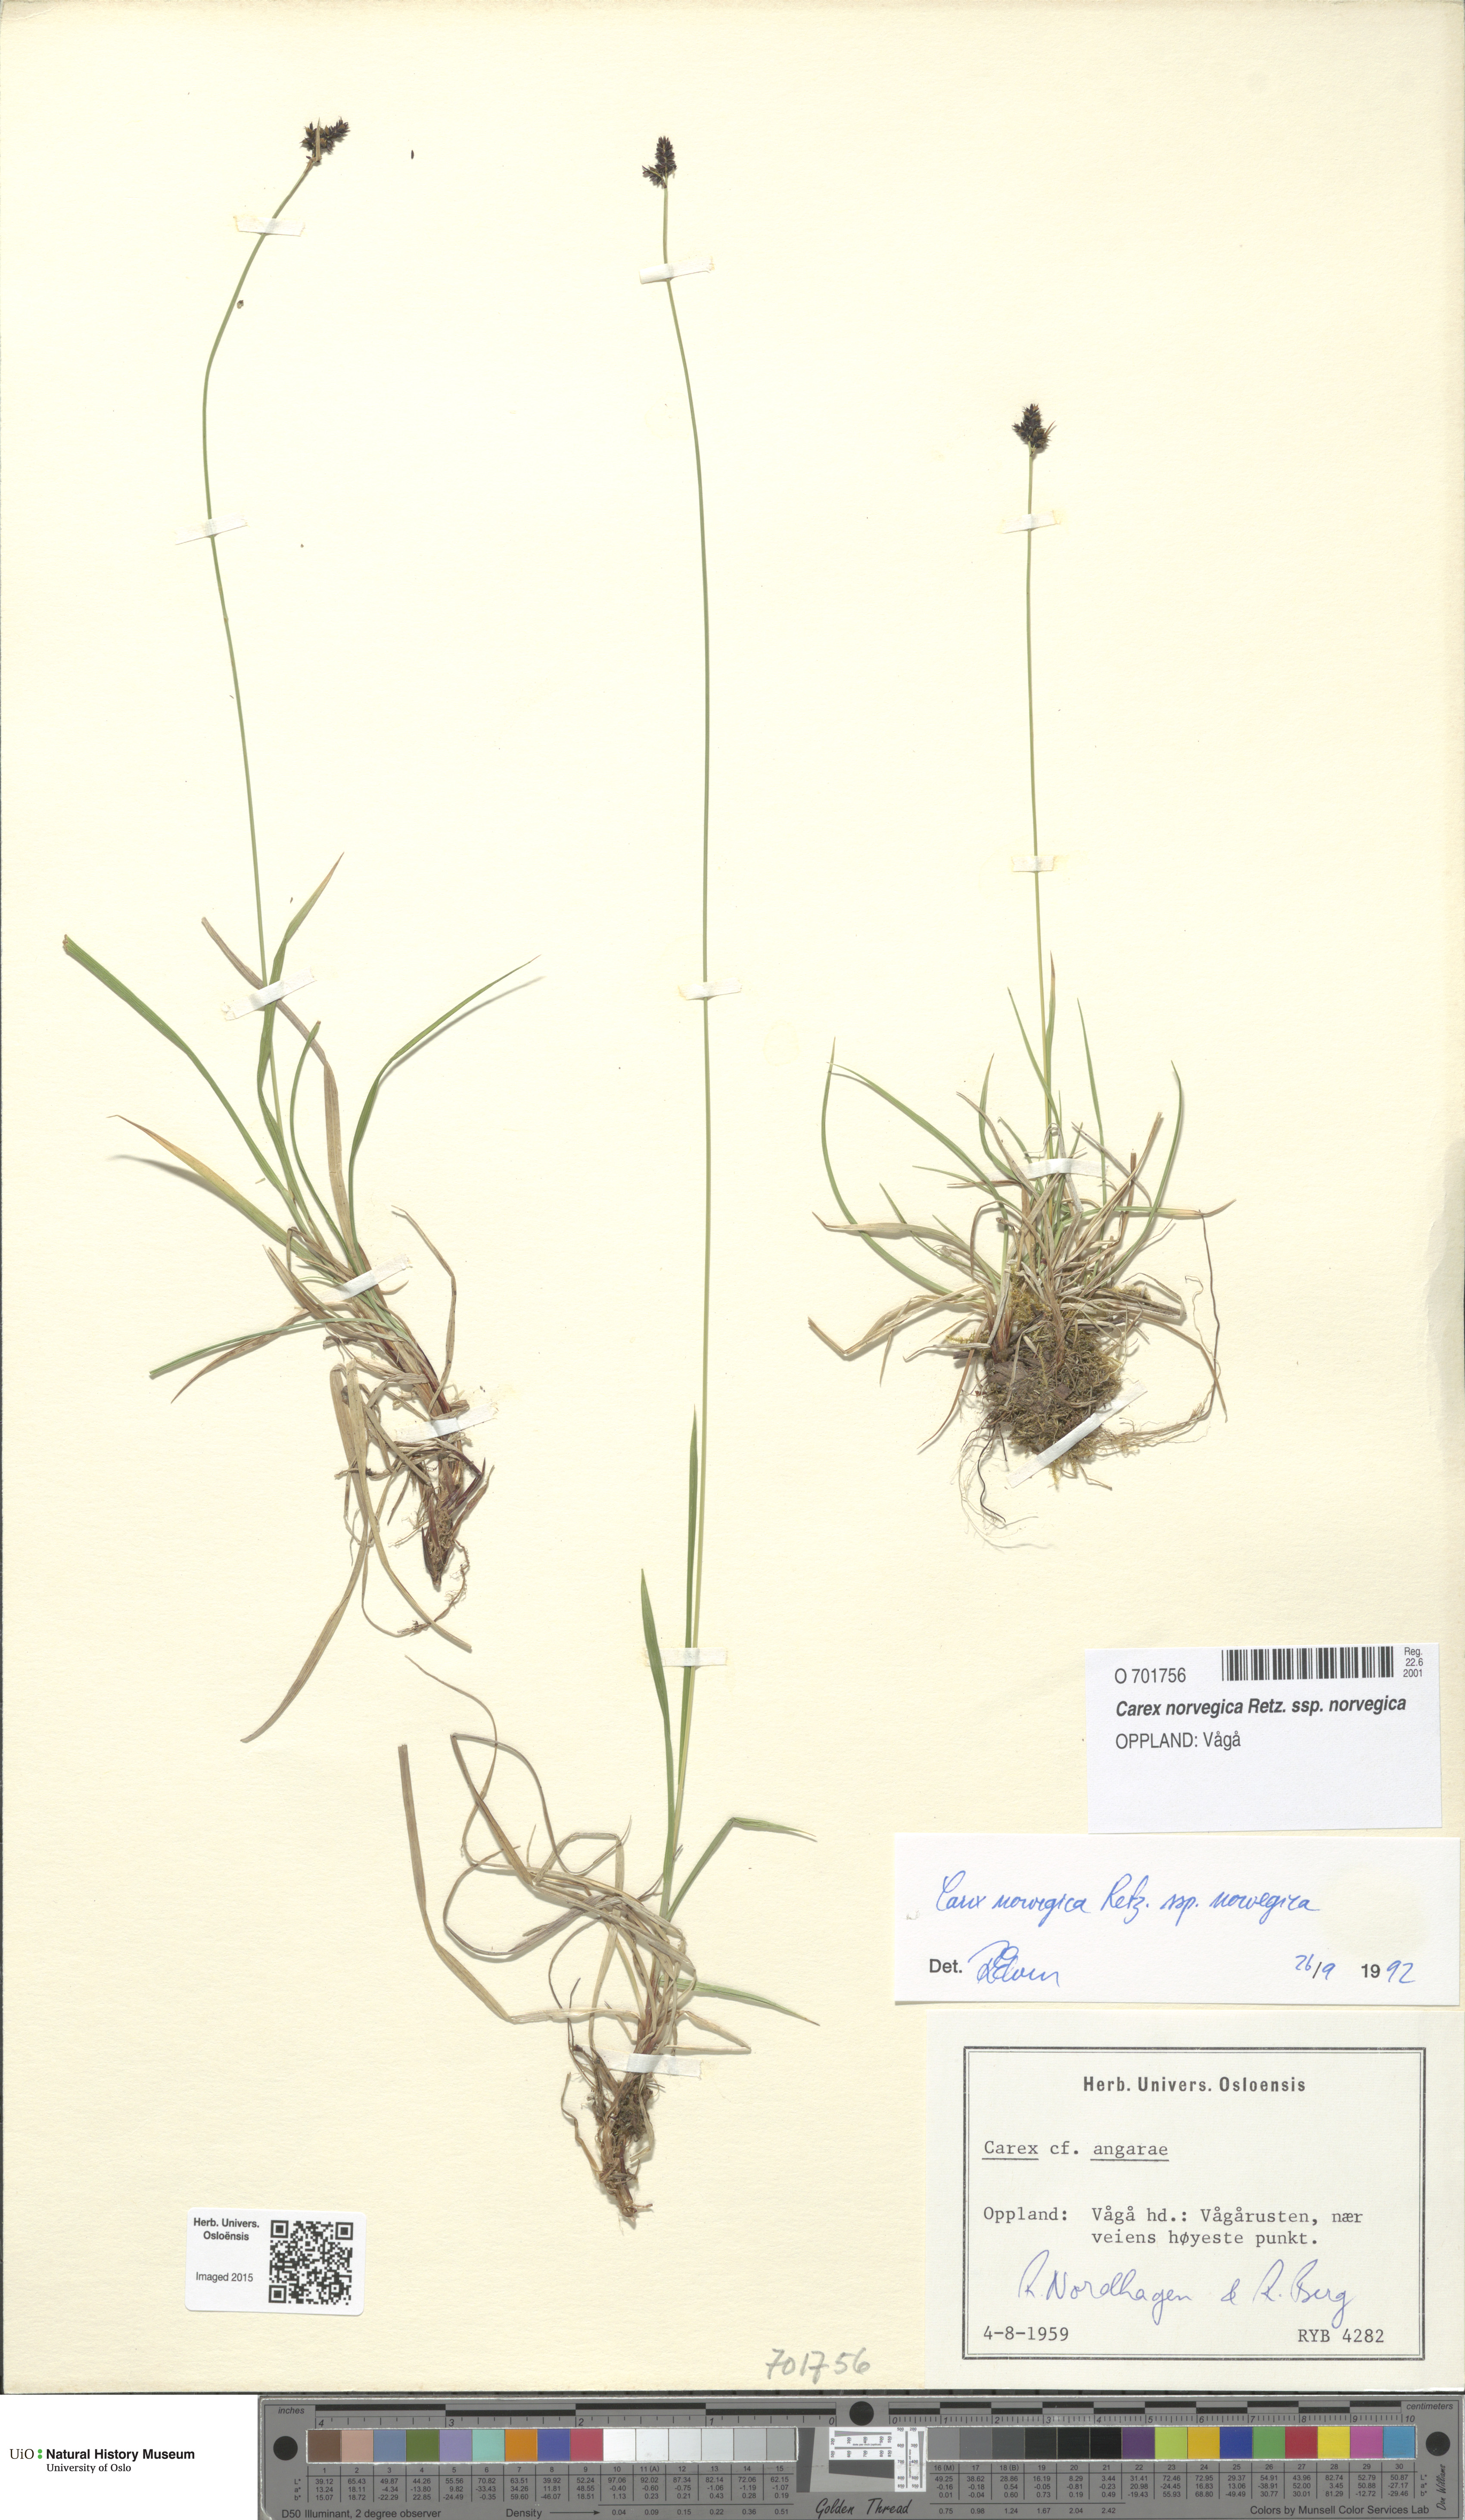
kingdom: Plantae
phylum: Tracheophyta
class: Liliopsida
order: Poales
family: Cyperaceae
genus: Carex
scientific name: Carex norvegica
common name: Close-headed alpine-sedge
